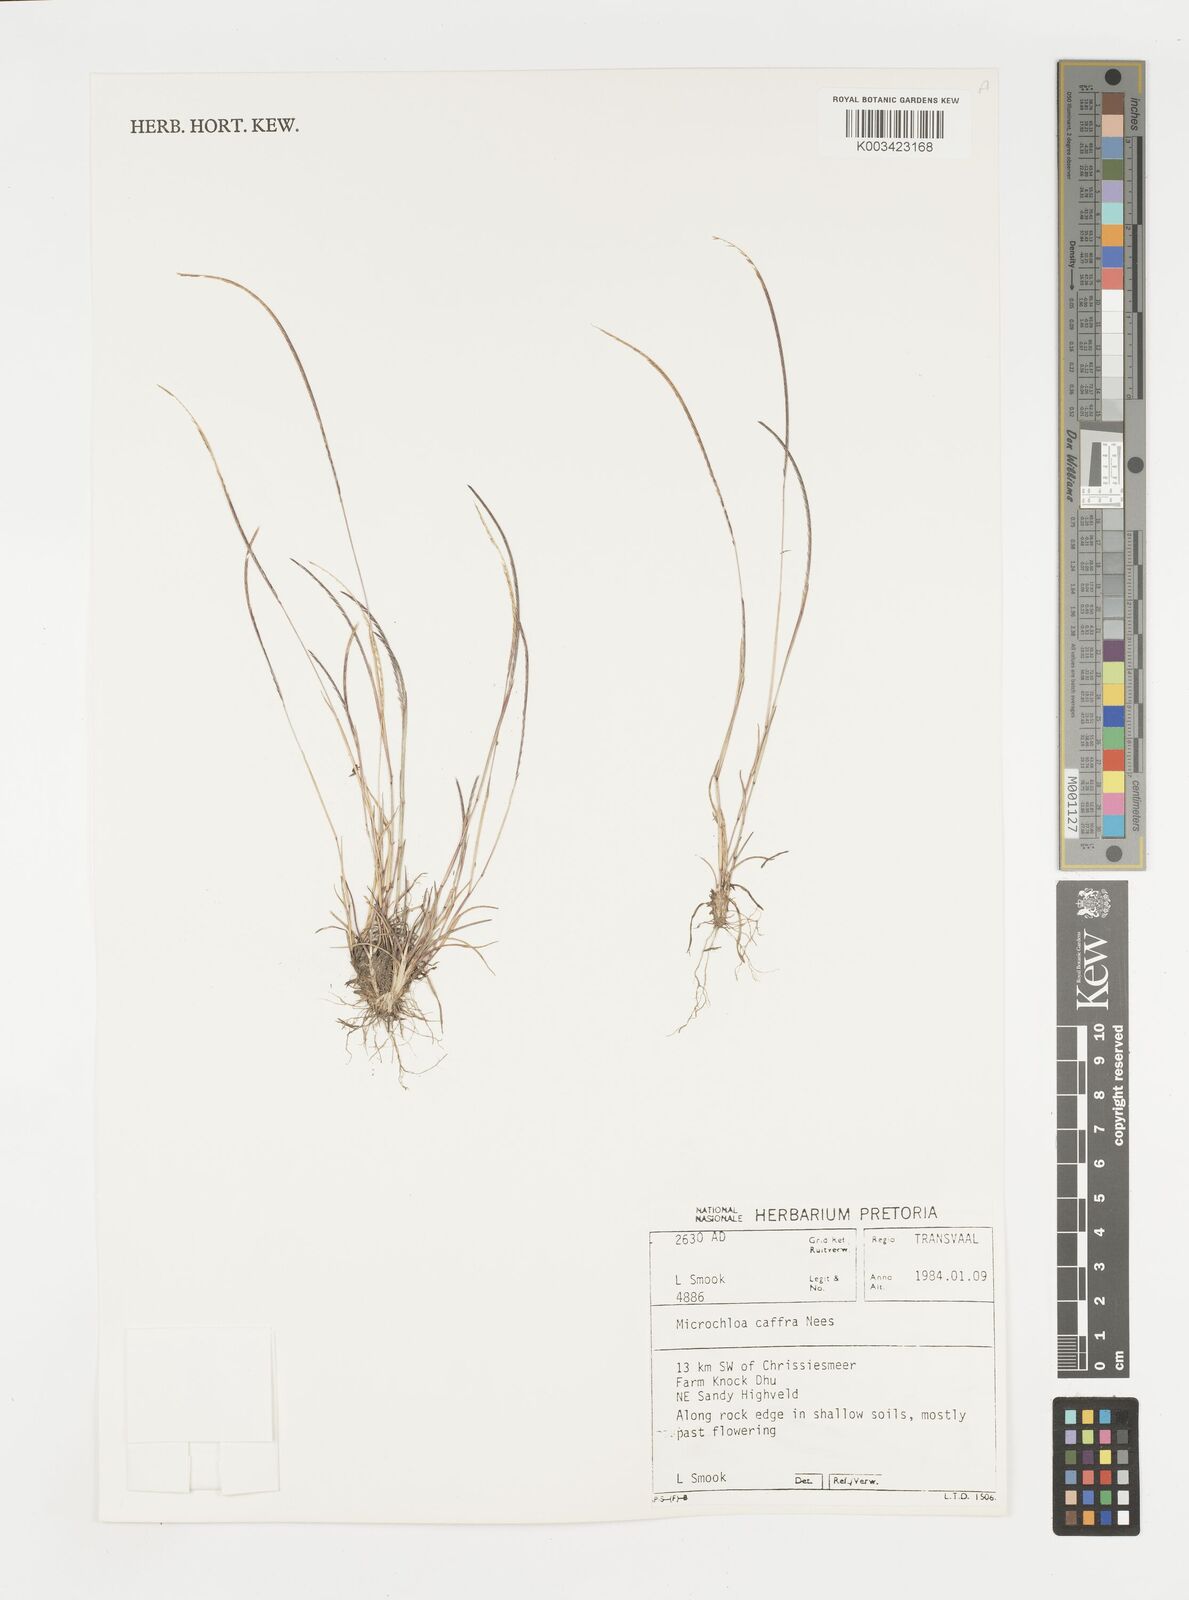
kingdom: Plantae
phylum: Tracheophyta
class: Liliopsida
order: Poales
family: Poaceae
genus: Microchloa
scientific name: Microchloa caffra
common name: Pincushion grass
